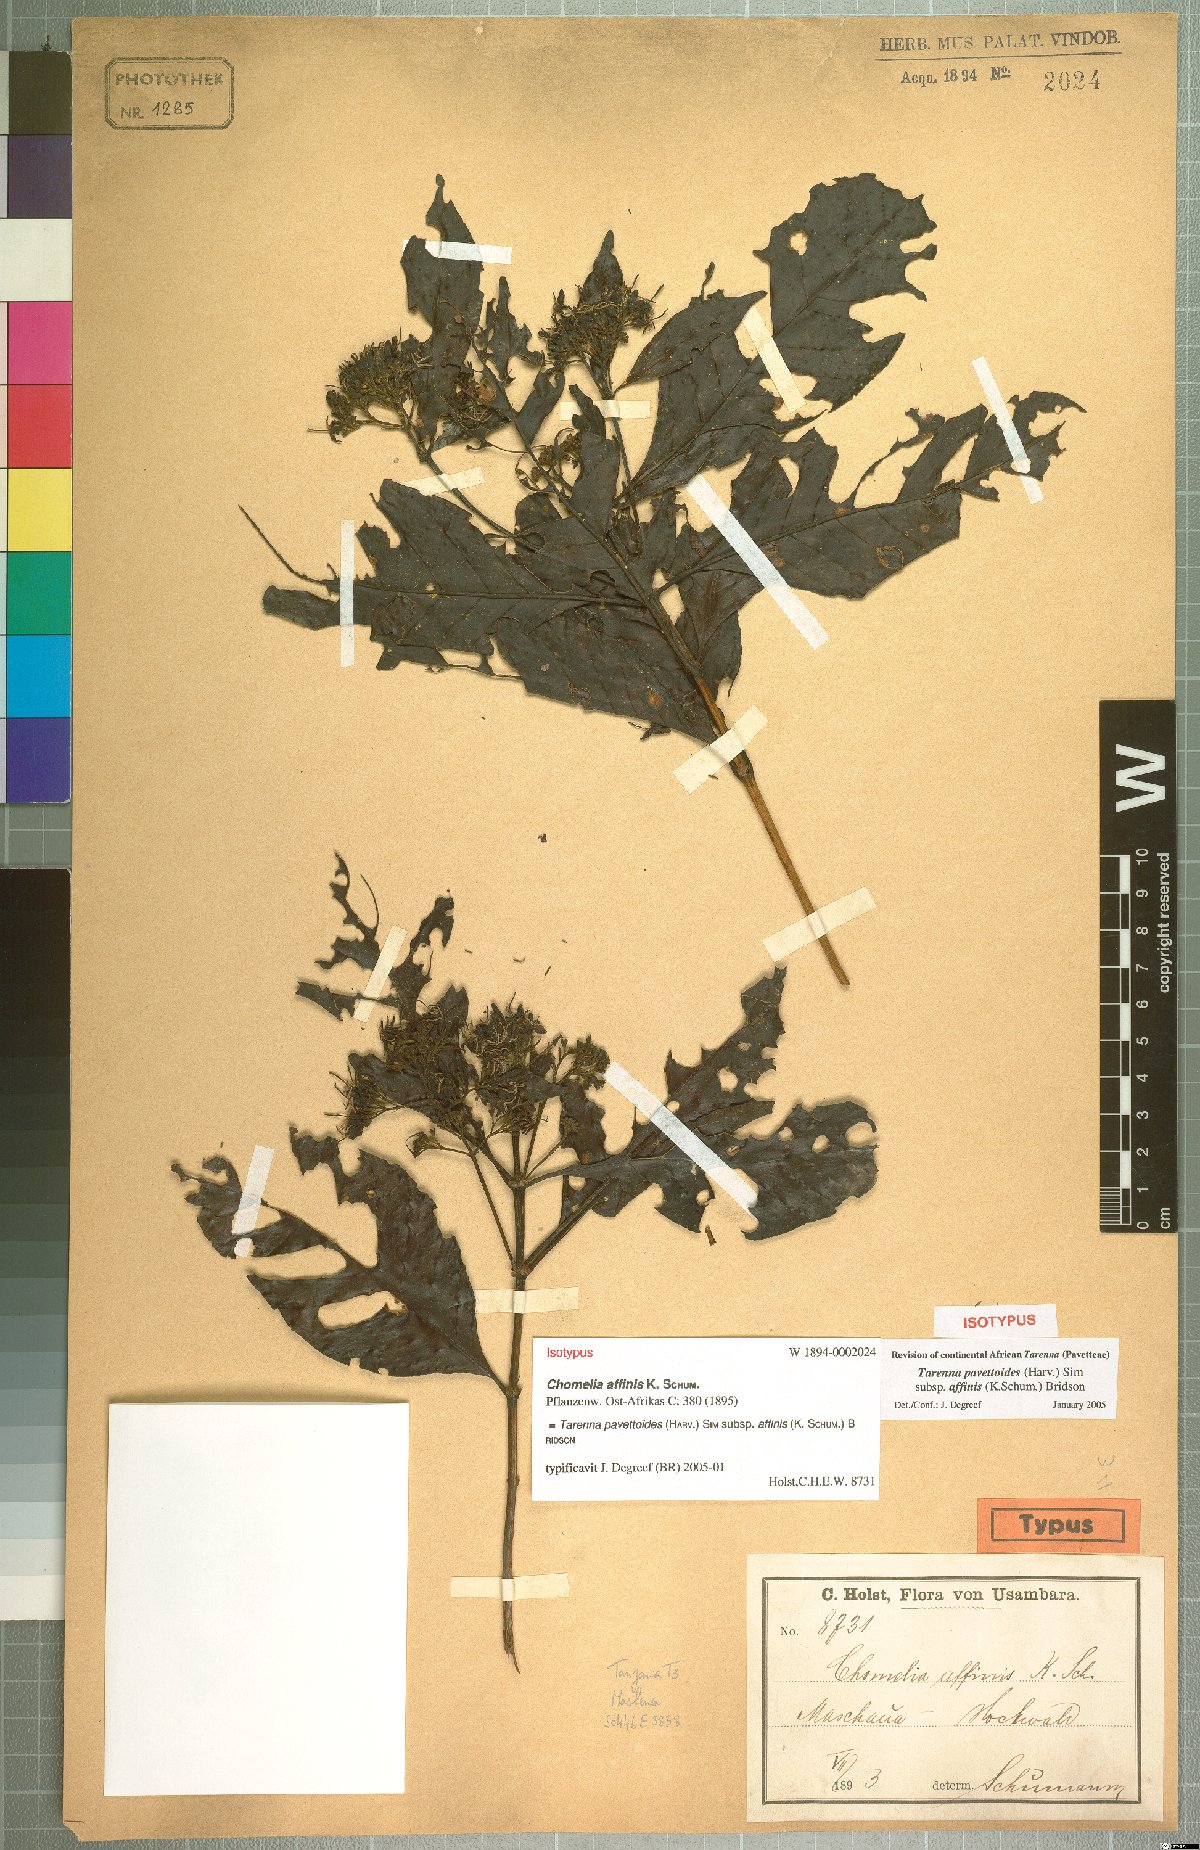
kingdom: Plantae
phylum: Tracheophyta
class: Magnoliopsida
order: Gentianales
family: Rubiaceae
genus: Tarenna
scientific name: Tarenna pavettoides
